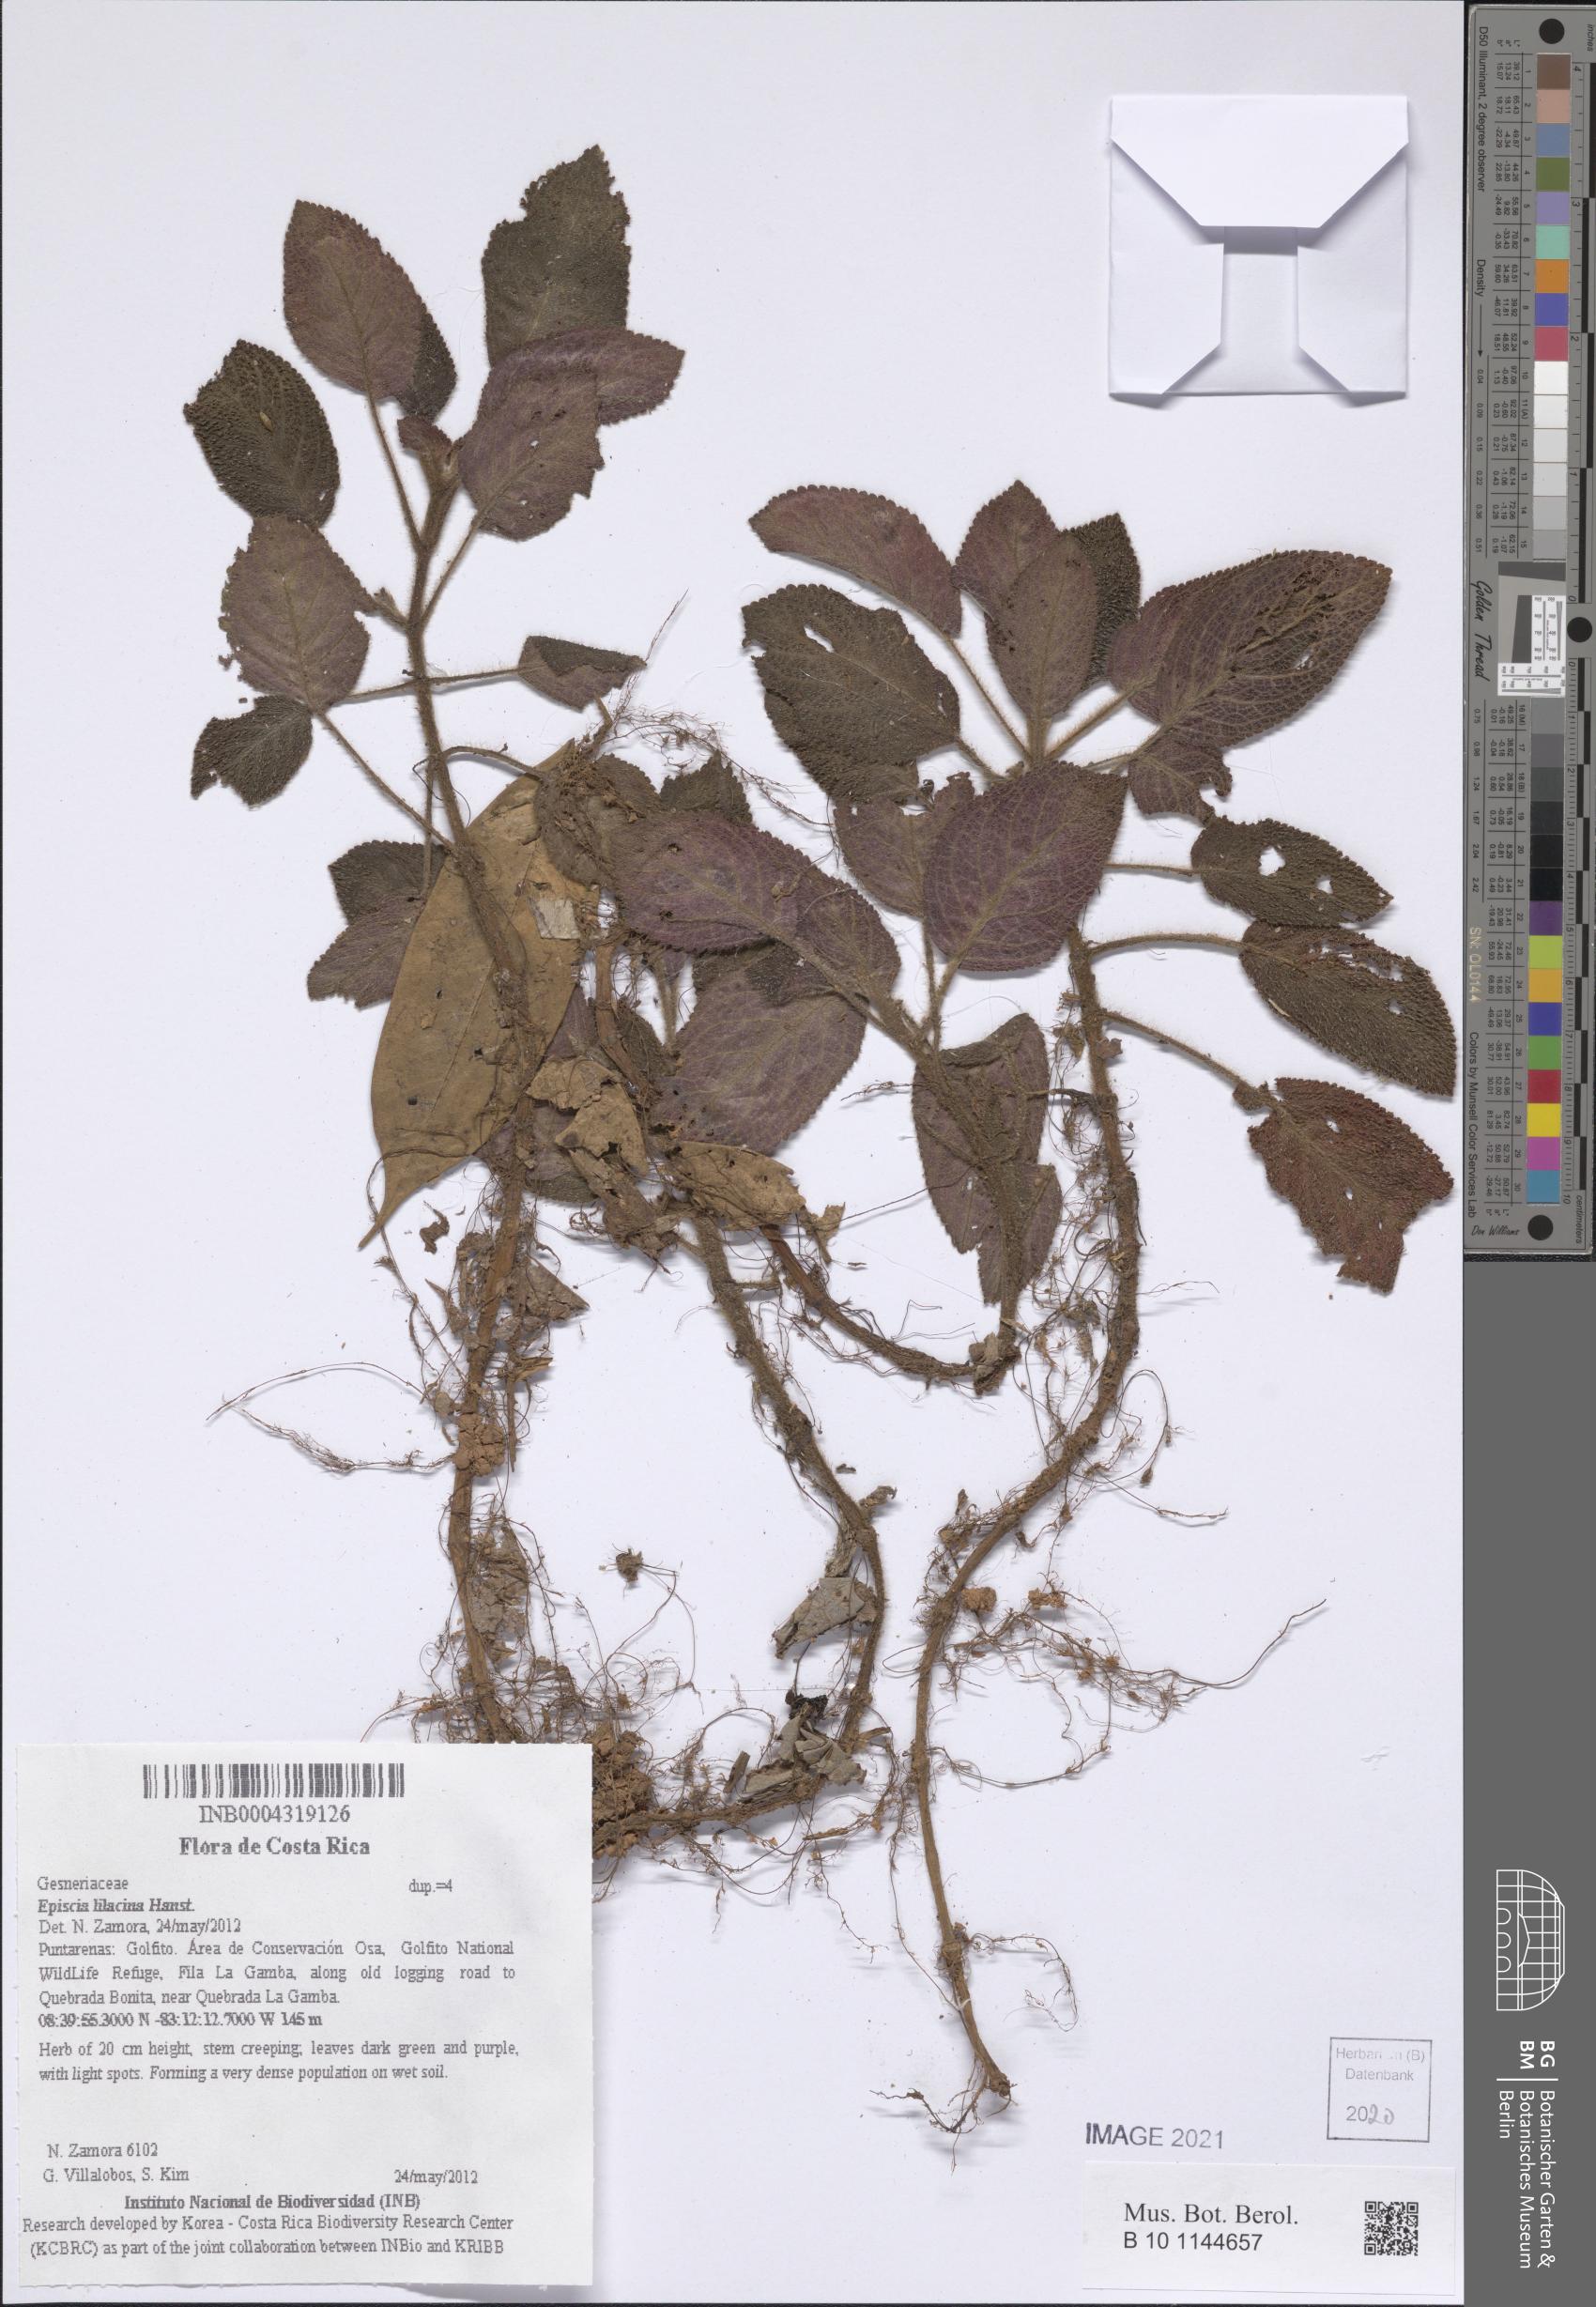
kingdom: Plantae
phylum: Tracheophyta
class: Magnoliopsida
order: Lamiales
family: Gesneriaceae
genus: Episcia
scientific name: Episcia lilacina
